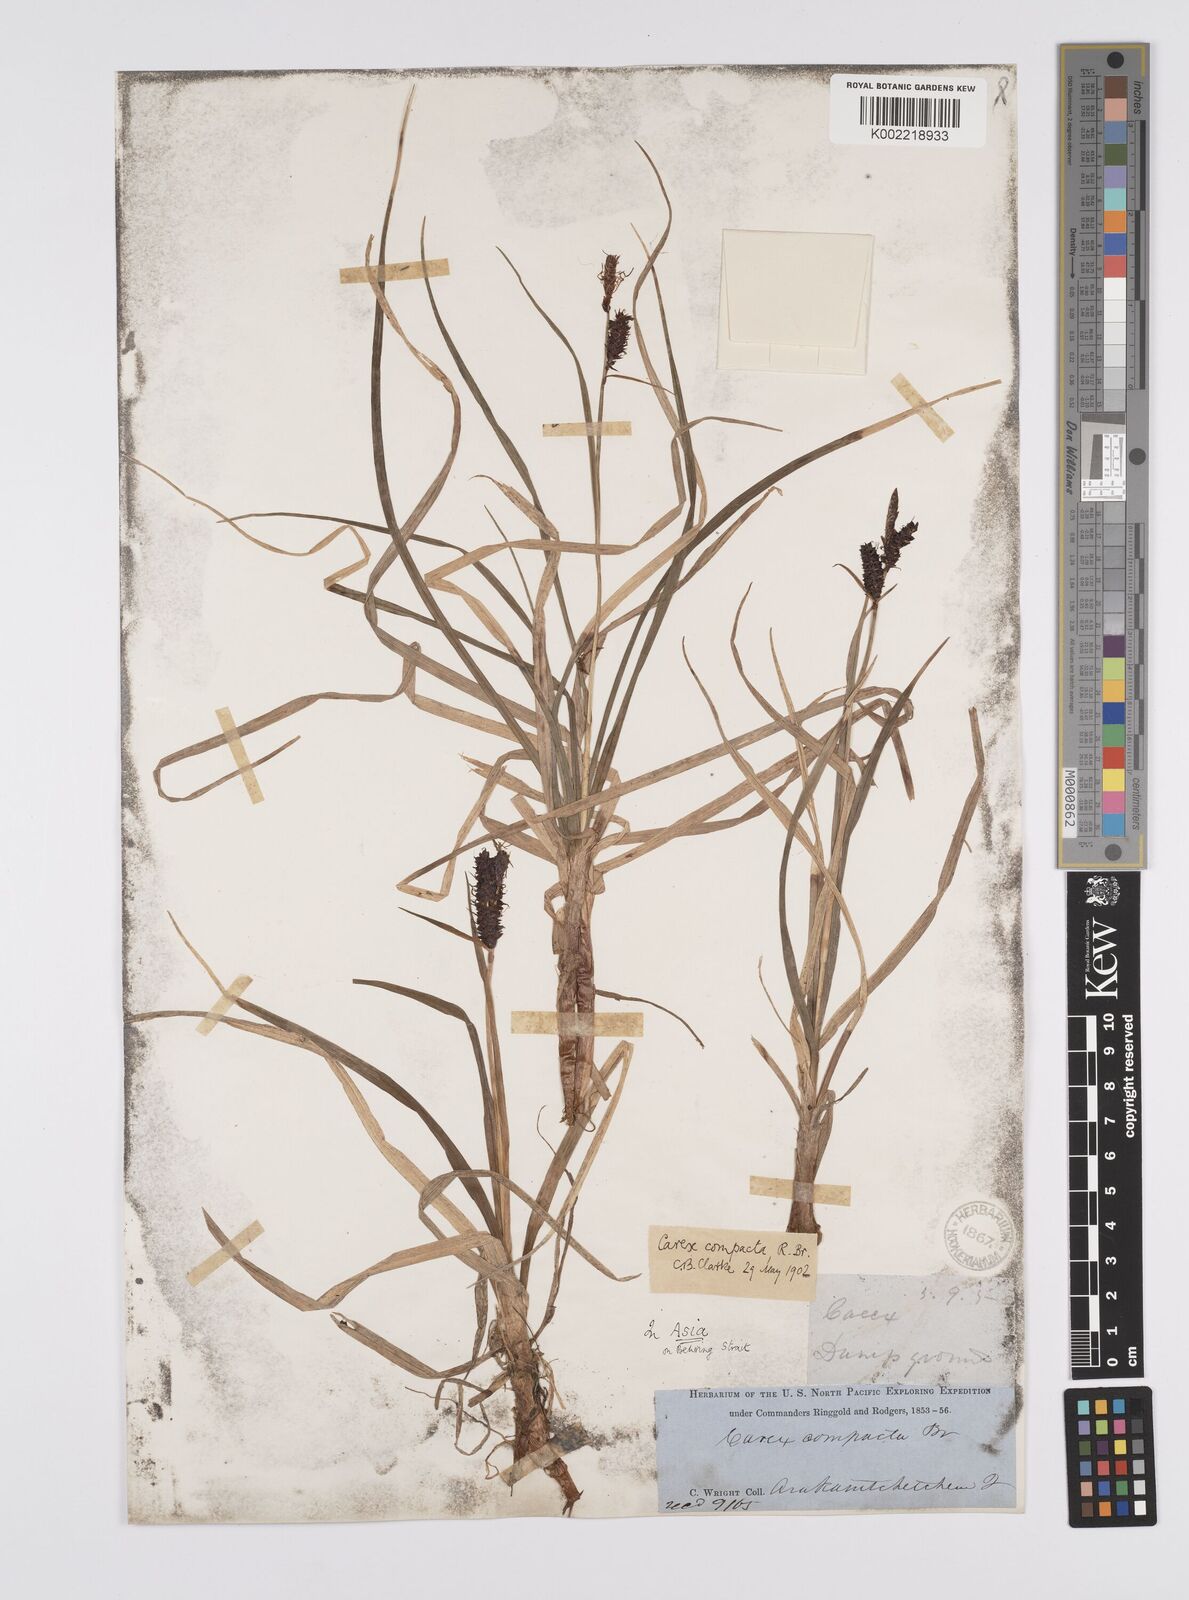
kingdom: Plantae
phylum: Tracheophyta
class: Liliopsida
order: Poales
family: Cyperaceae
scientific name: Cyperaceae
